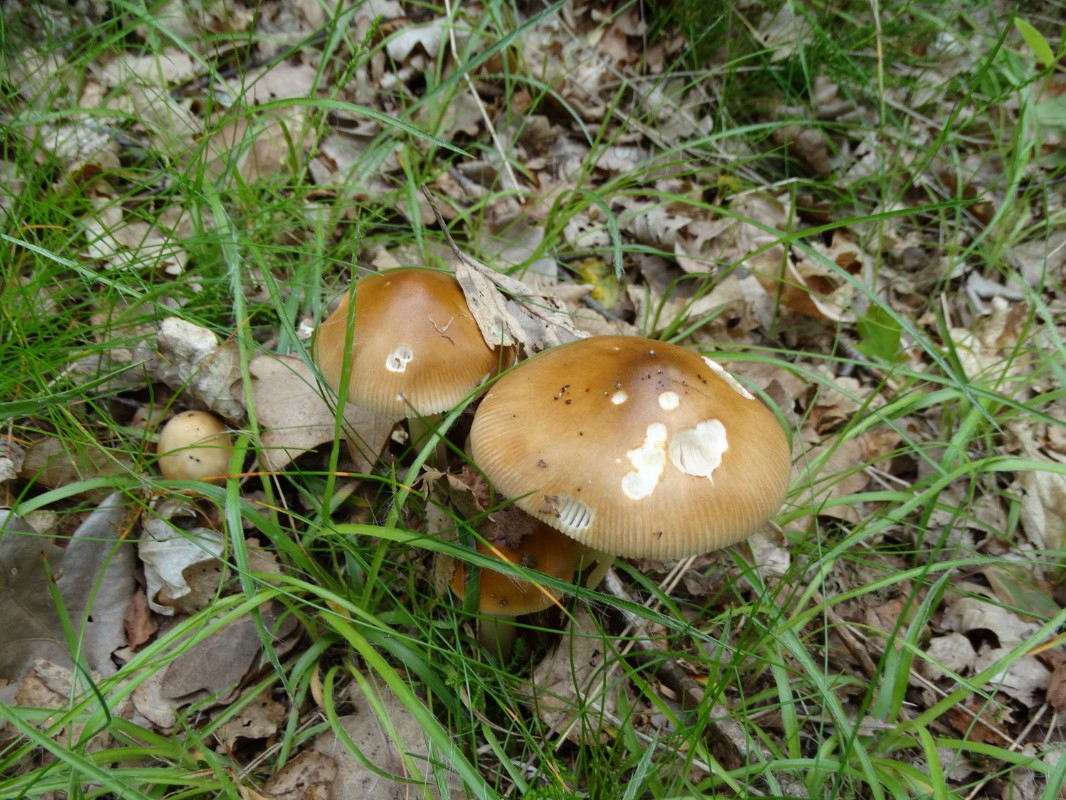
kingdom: Fungi
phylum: Basidiomycota
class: Agaricomycetes
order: Agaricales
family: Amanitaceae
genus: Amanita
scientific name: Amanita fulva
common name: brun kam-fluesvamp
